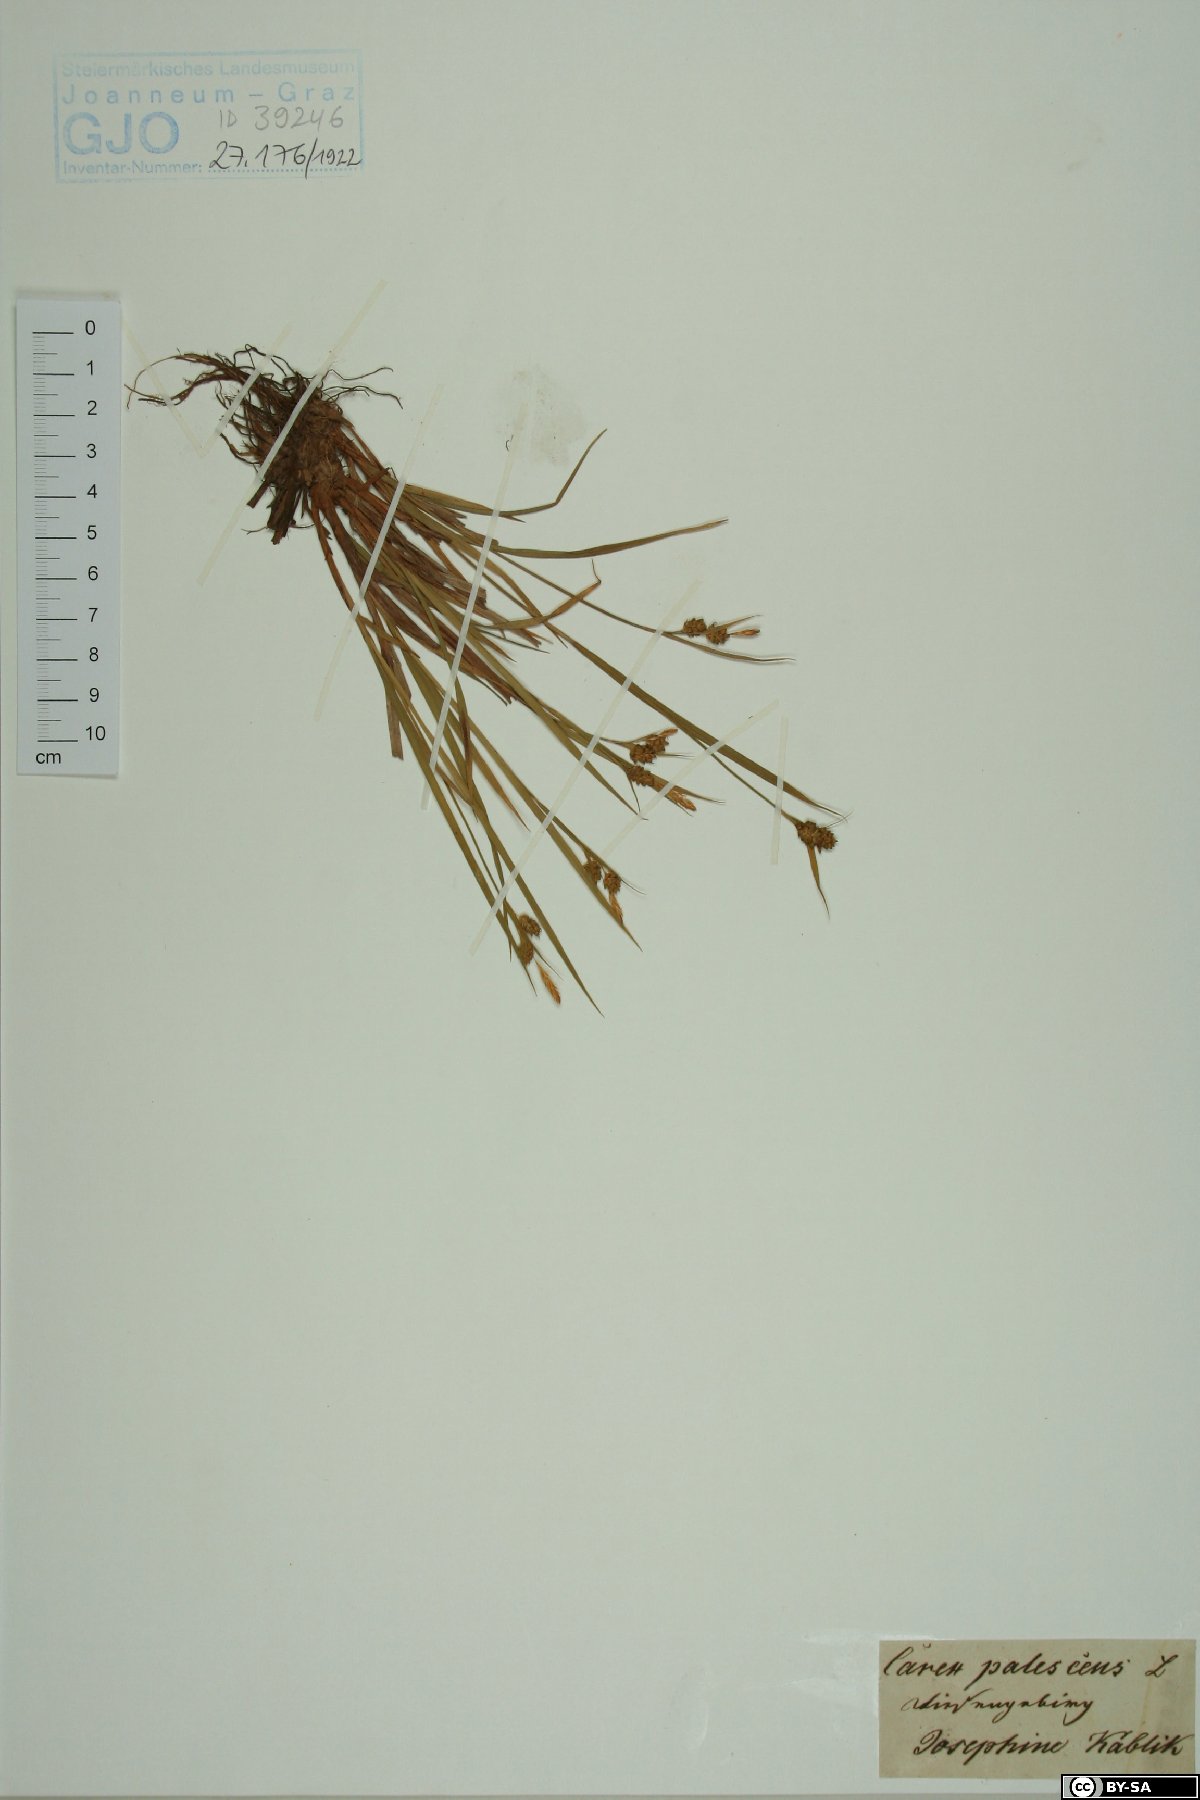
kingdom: Plantae
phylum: Tracheophyta
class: Liliopsida
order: Poales
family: Cyperaceae
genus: Carex
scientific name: Carex pallescens
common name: Pale sedge
